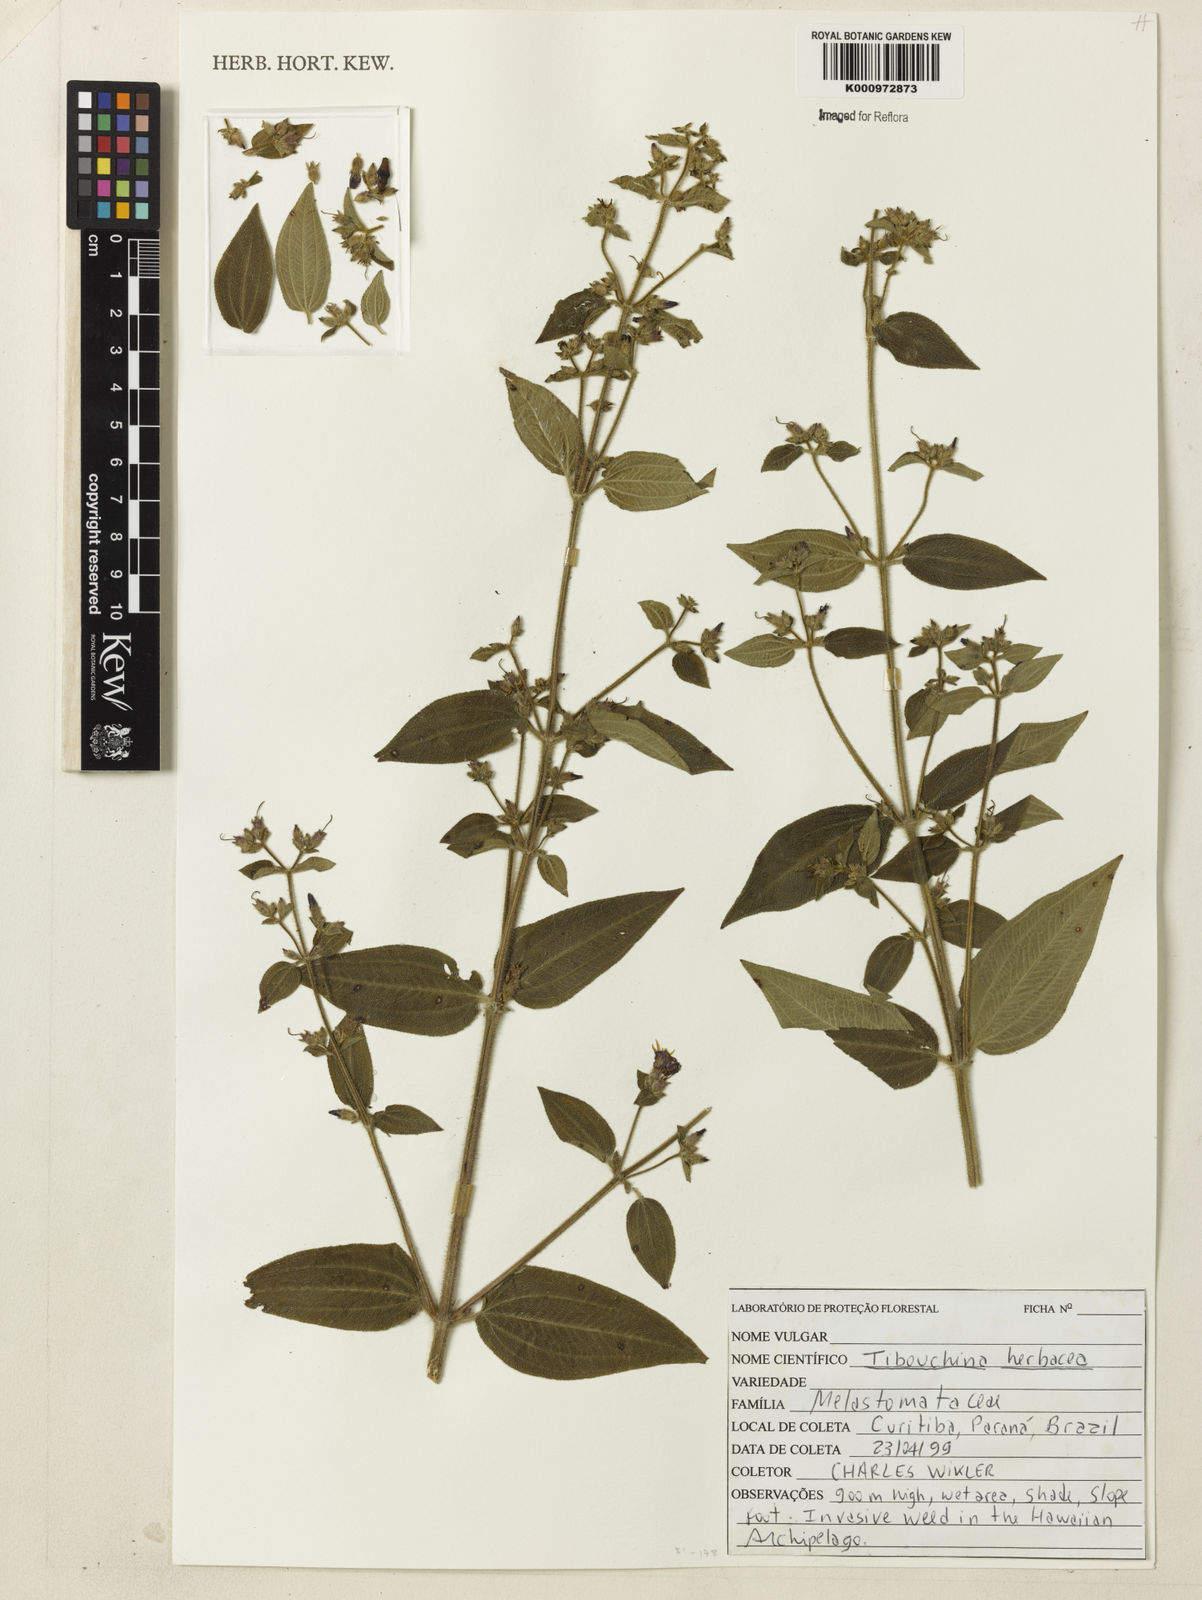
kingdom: Plantae
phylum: Tracheophyta
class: Magnoliopsida
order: Myrtales
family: Melastomataceae
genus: Chaetogastra
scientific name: Chaetogastra herbacea
